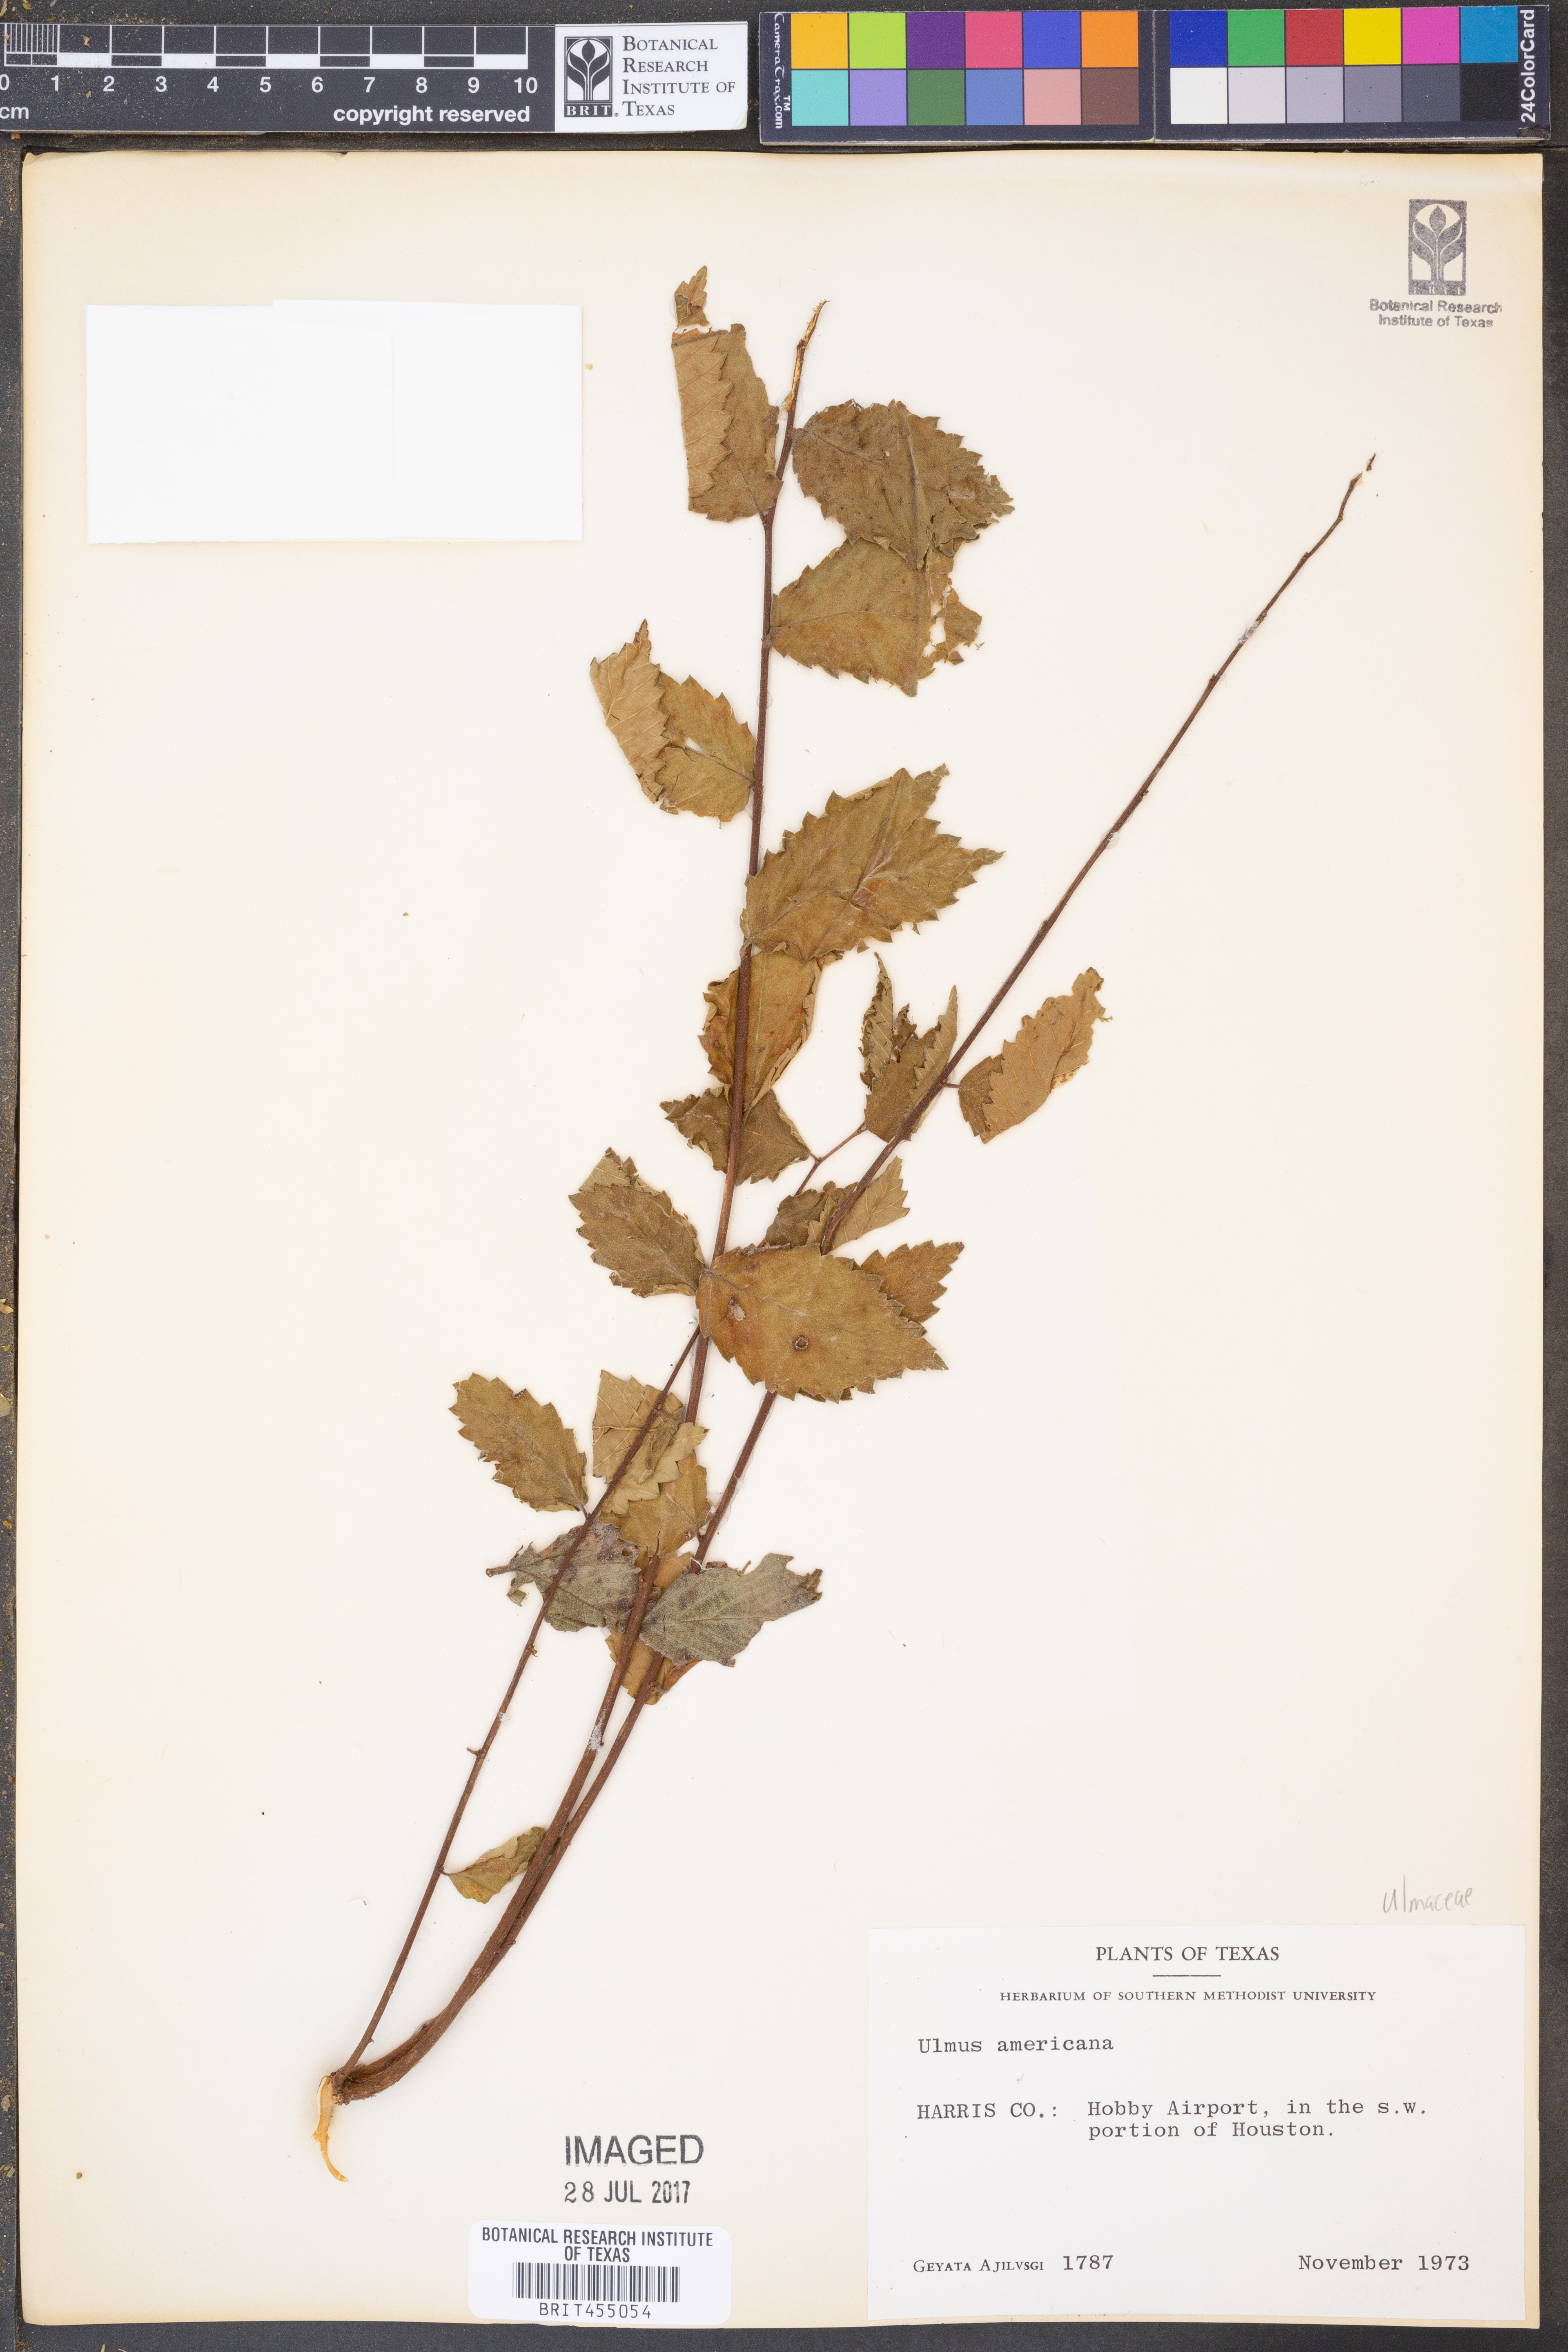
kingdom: Plantae
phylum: Tracheophyta
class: Magnoliopsida
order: Rosales
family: Ulmaceae
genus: Ulmus
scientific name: Ulmus americana
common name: American elm
